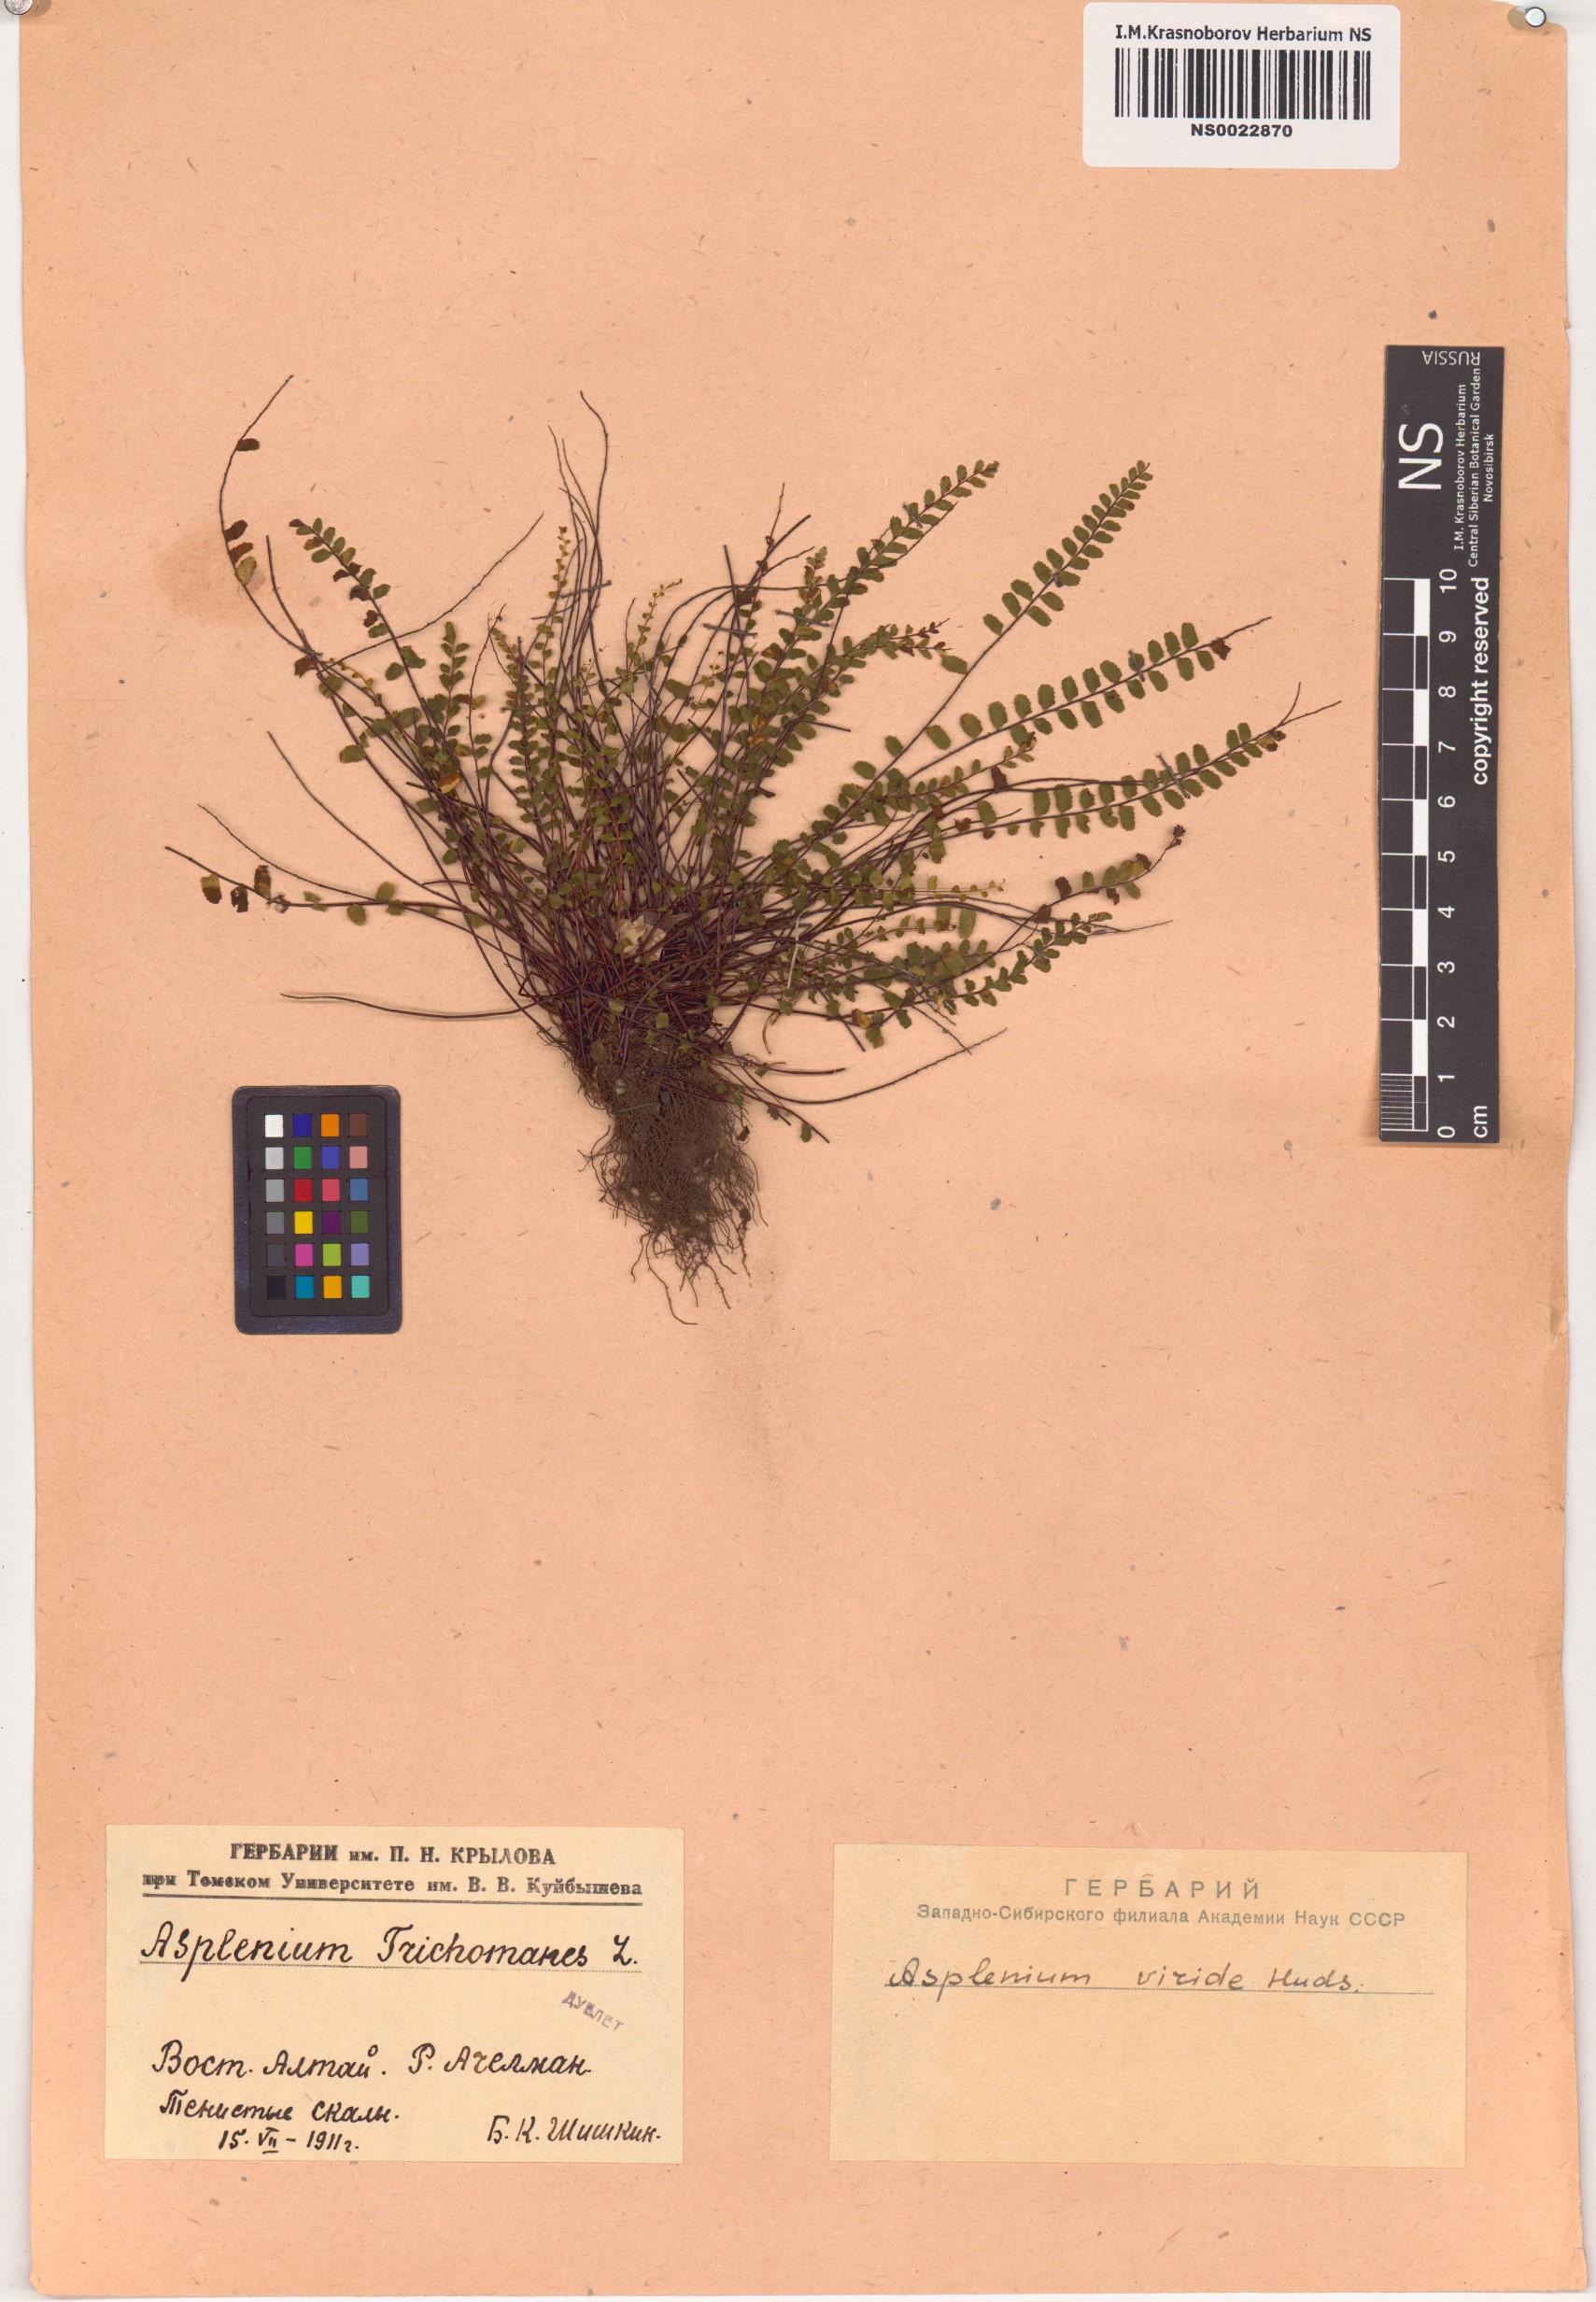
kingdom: Plantae
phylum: Tracheophyta
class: Polypodiopsida
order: Polypodiales
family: Aspleniaceae
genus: Asplenium
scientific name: Asplenium trichomanes
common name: Maidenhair spleenwort
